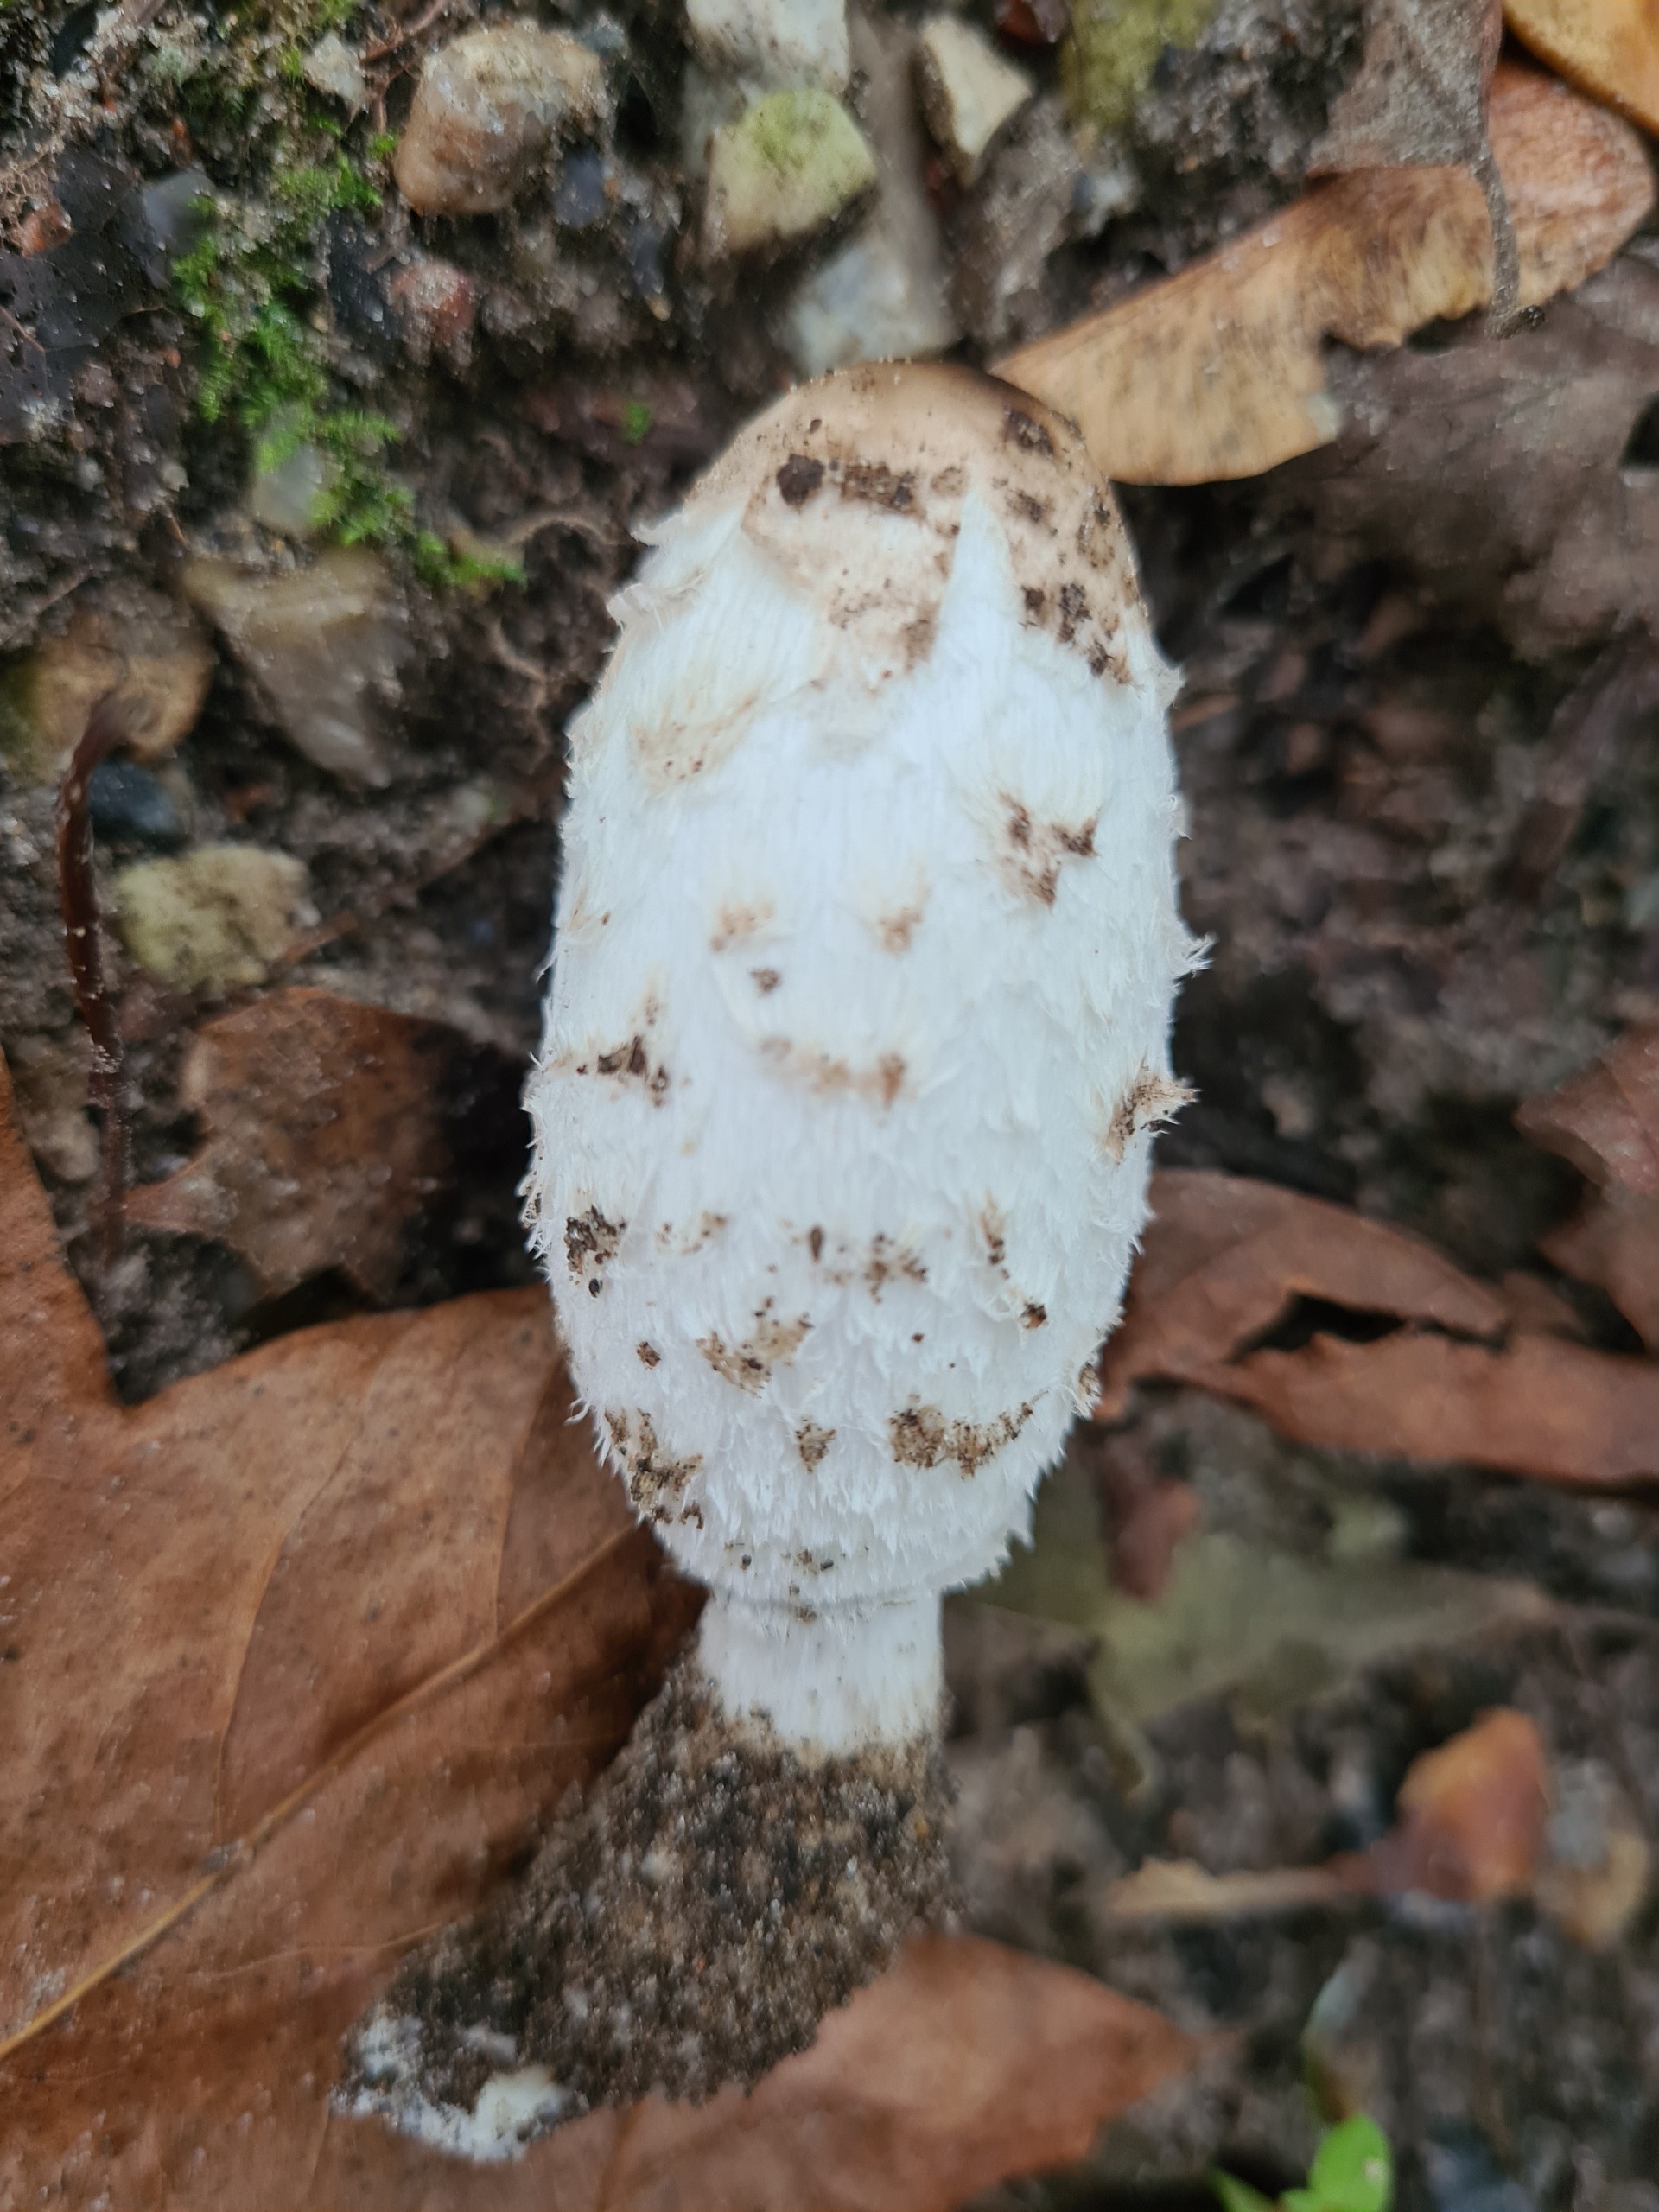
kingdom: Fungi
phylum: Basidiomycota
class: Agaricomycetes
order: Agaricales
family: Agaricaceae
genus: Coprinus
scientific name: Coprinus comatus
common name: Stor parykhat
